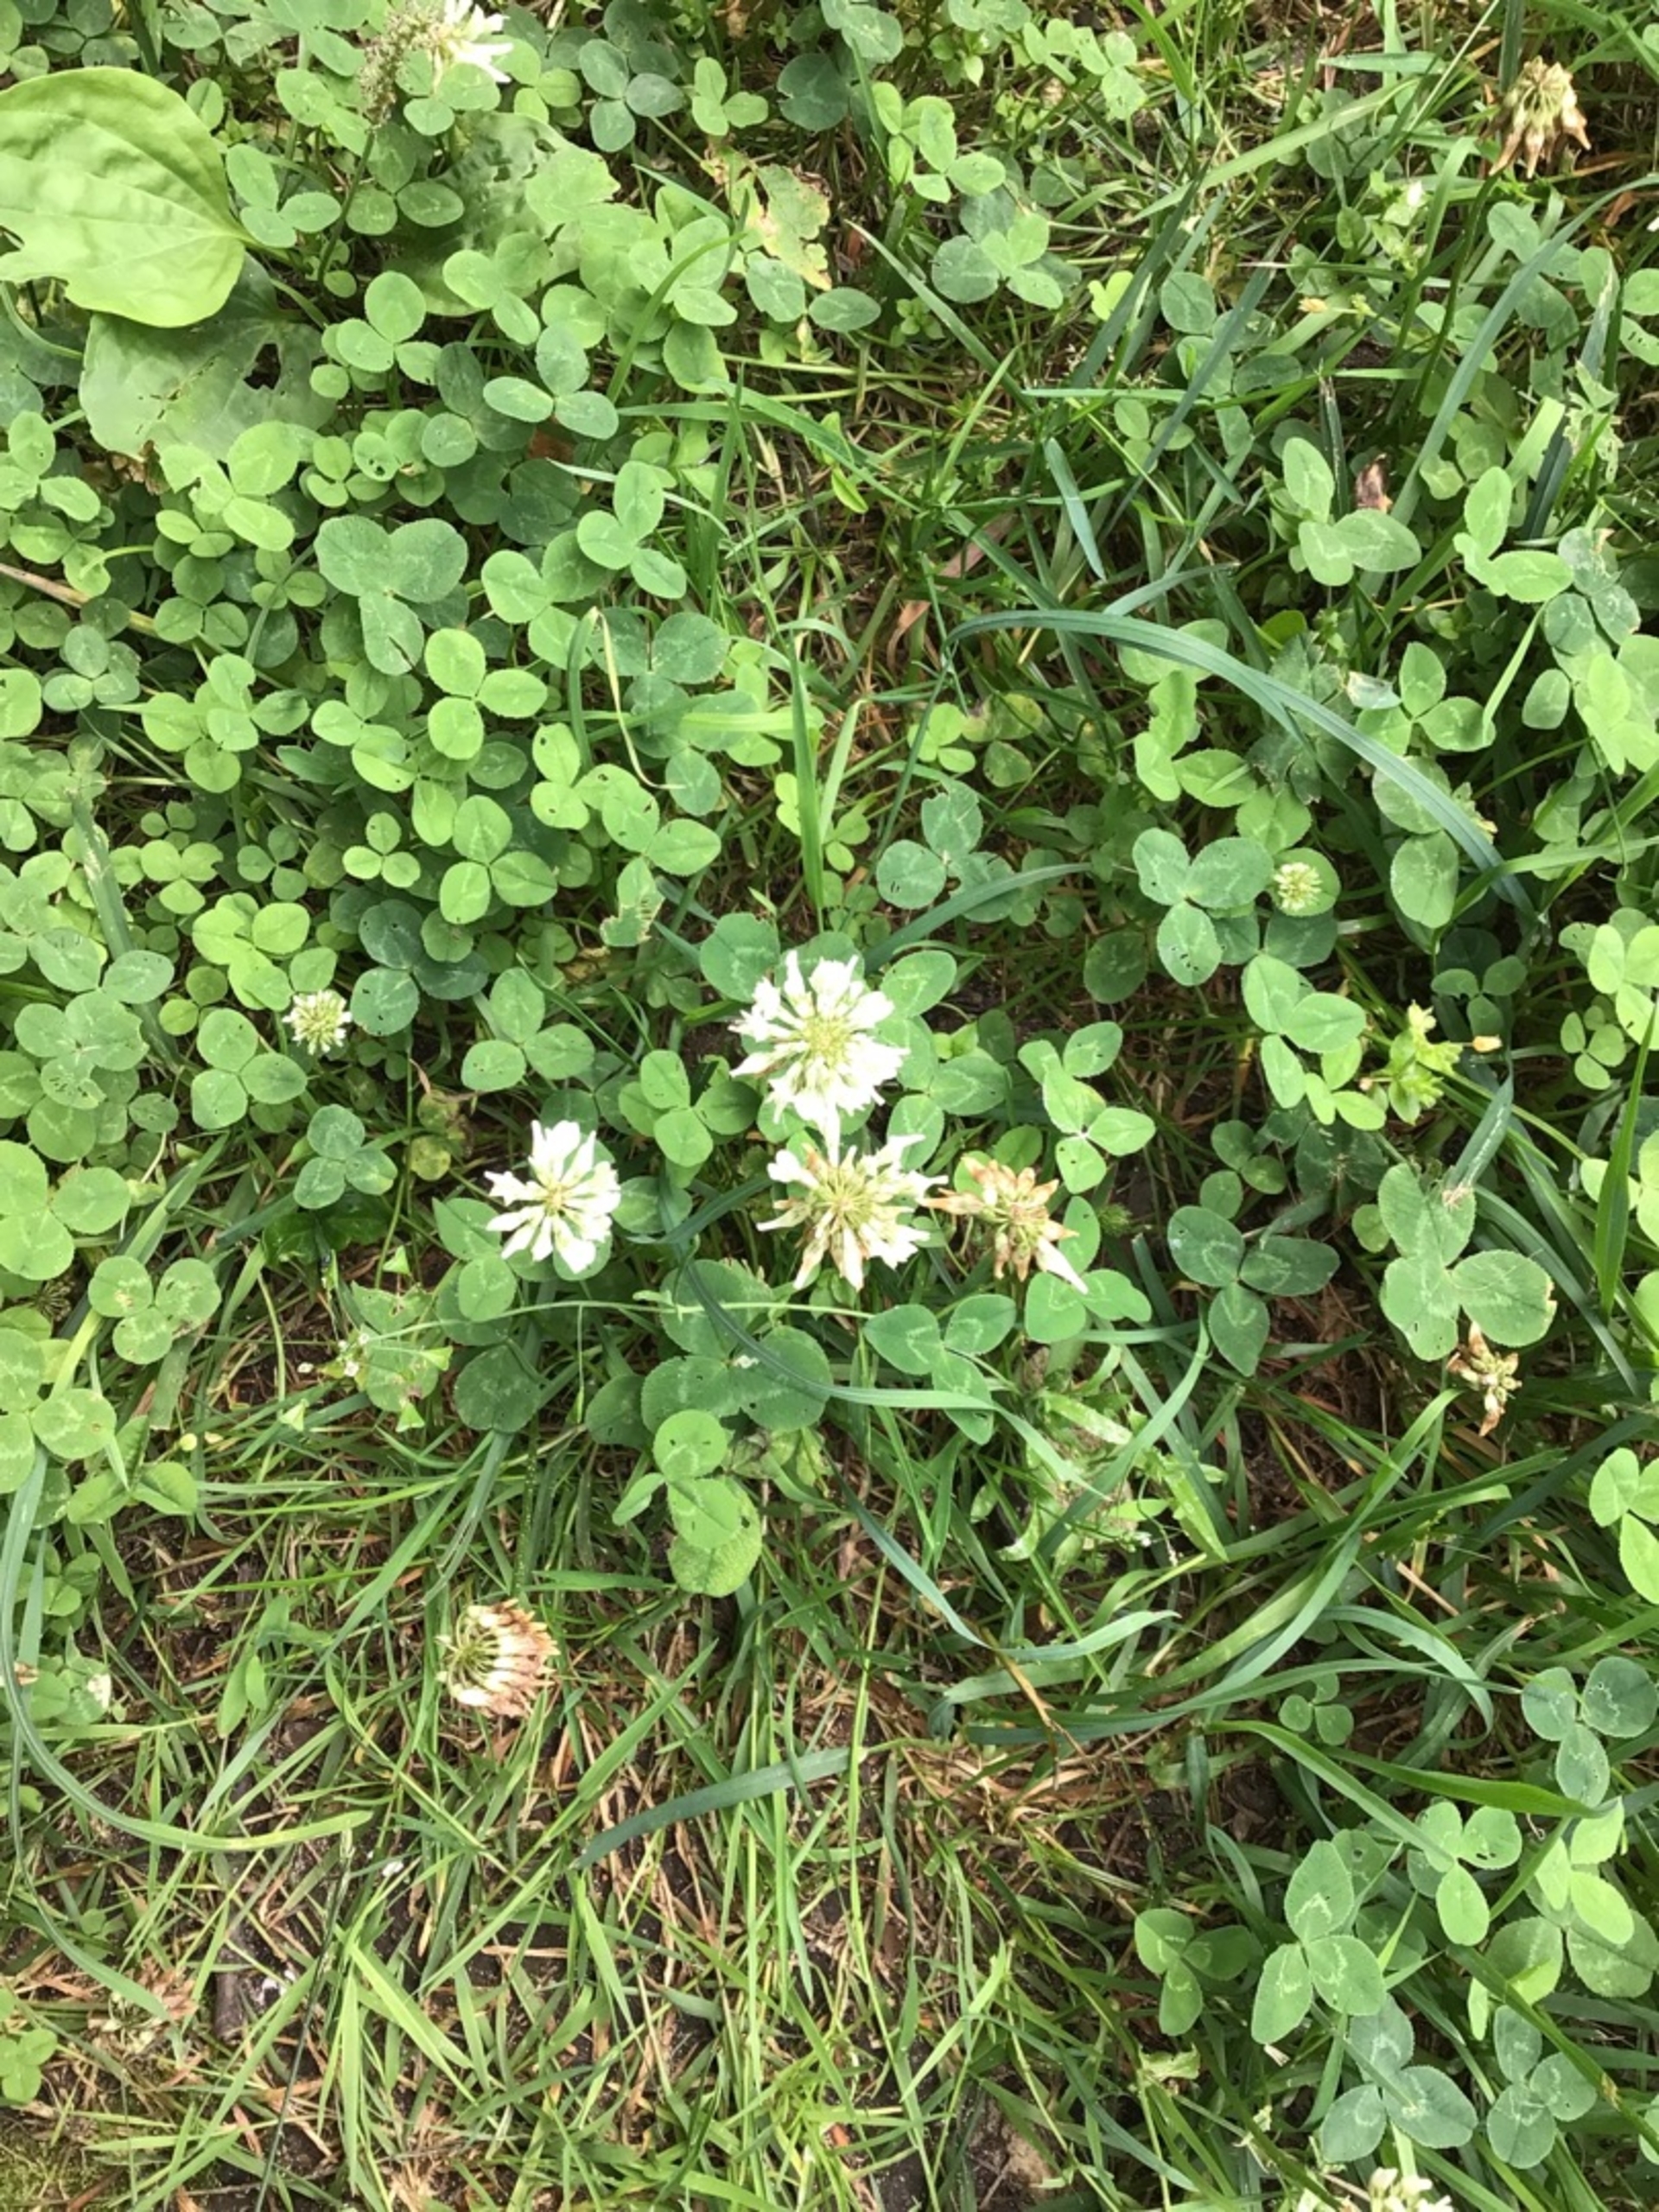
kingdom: Plantae
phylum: Tracheophyta
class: Magnoliopsida
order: Fabales
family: Fabaceae
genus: Trifolium
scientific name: Trifolium repens
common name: Hvid-kløver
